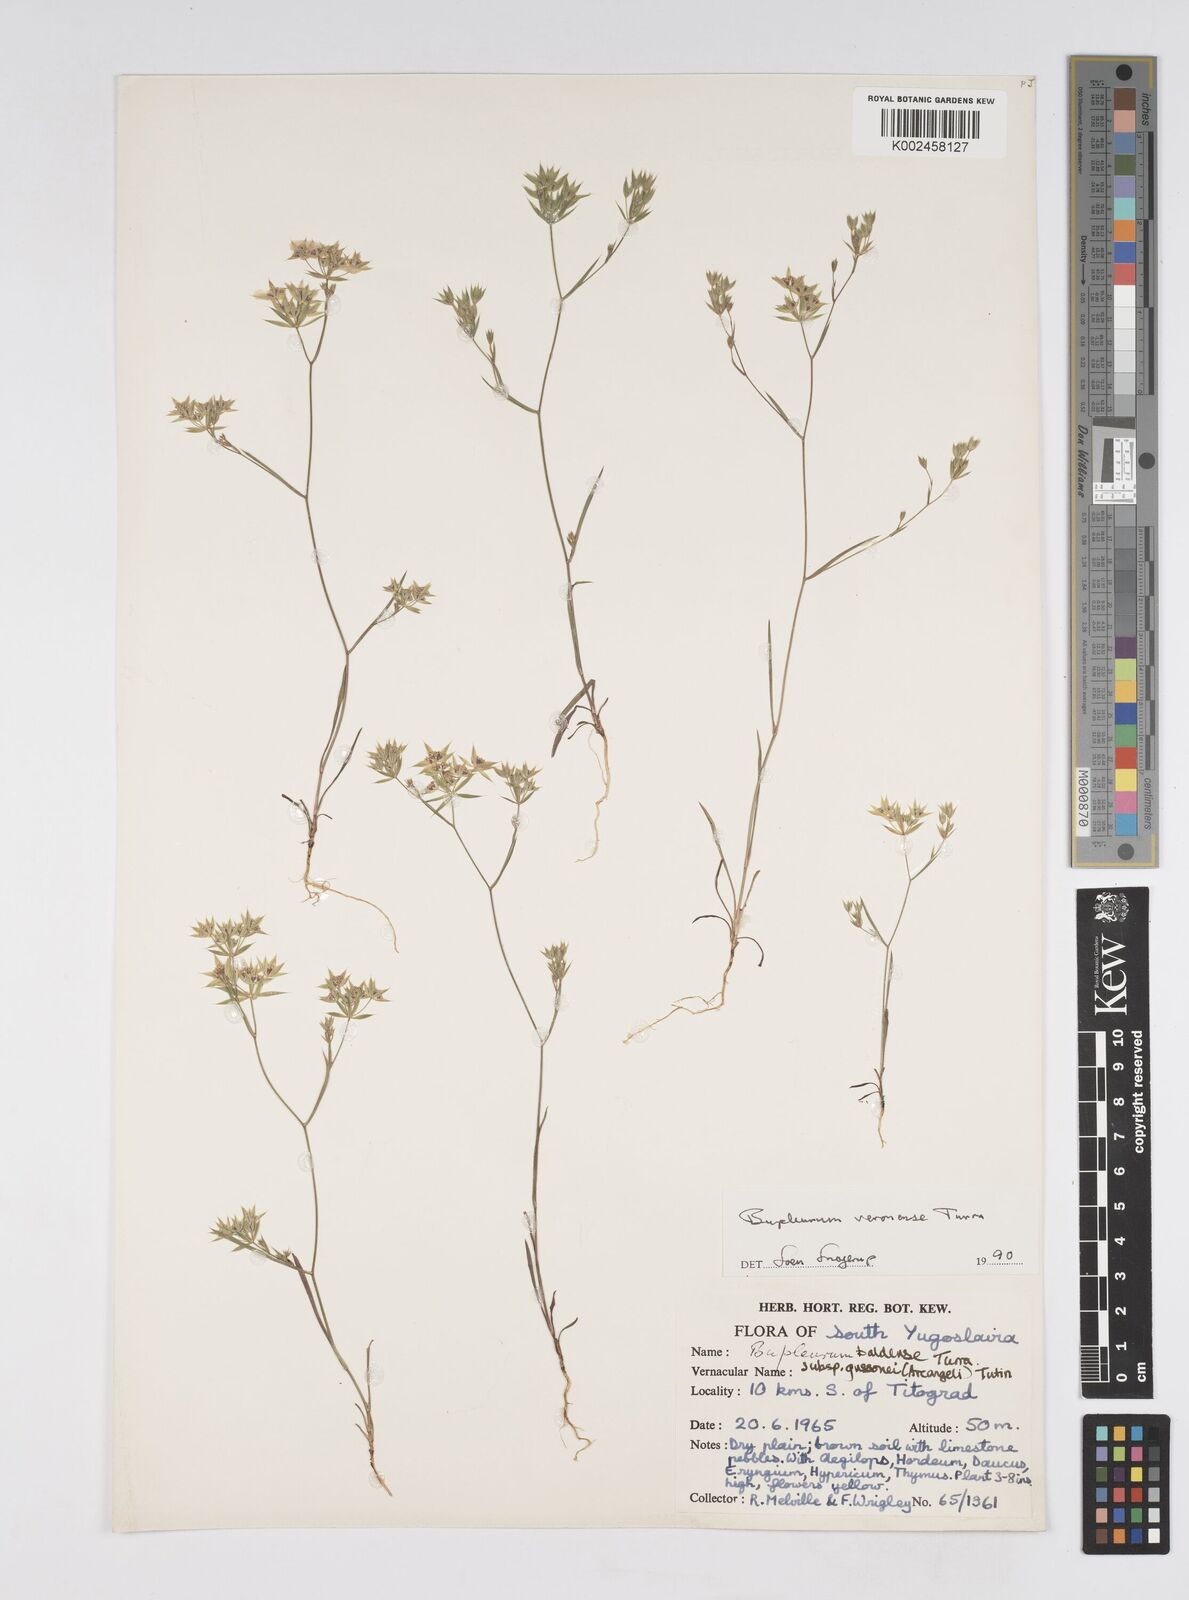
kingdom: Plantae
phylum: Tracheophyta
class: Magnoliopsida
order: Apiales
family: Apiaceae
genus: Bupleurum
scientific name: Bupleurum baldense
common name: Small hare's-ear
